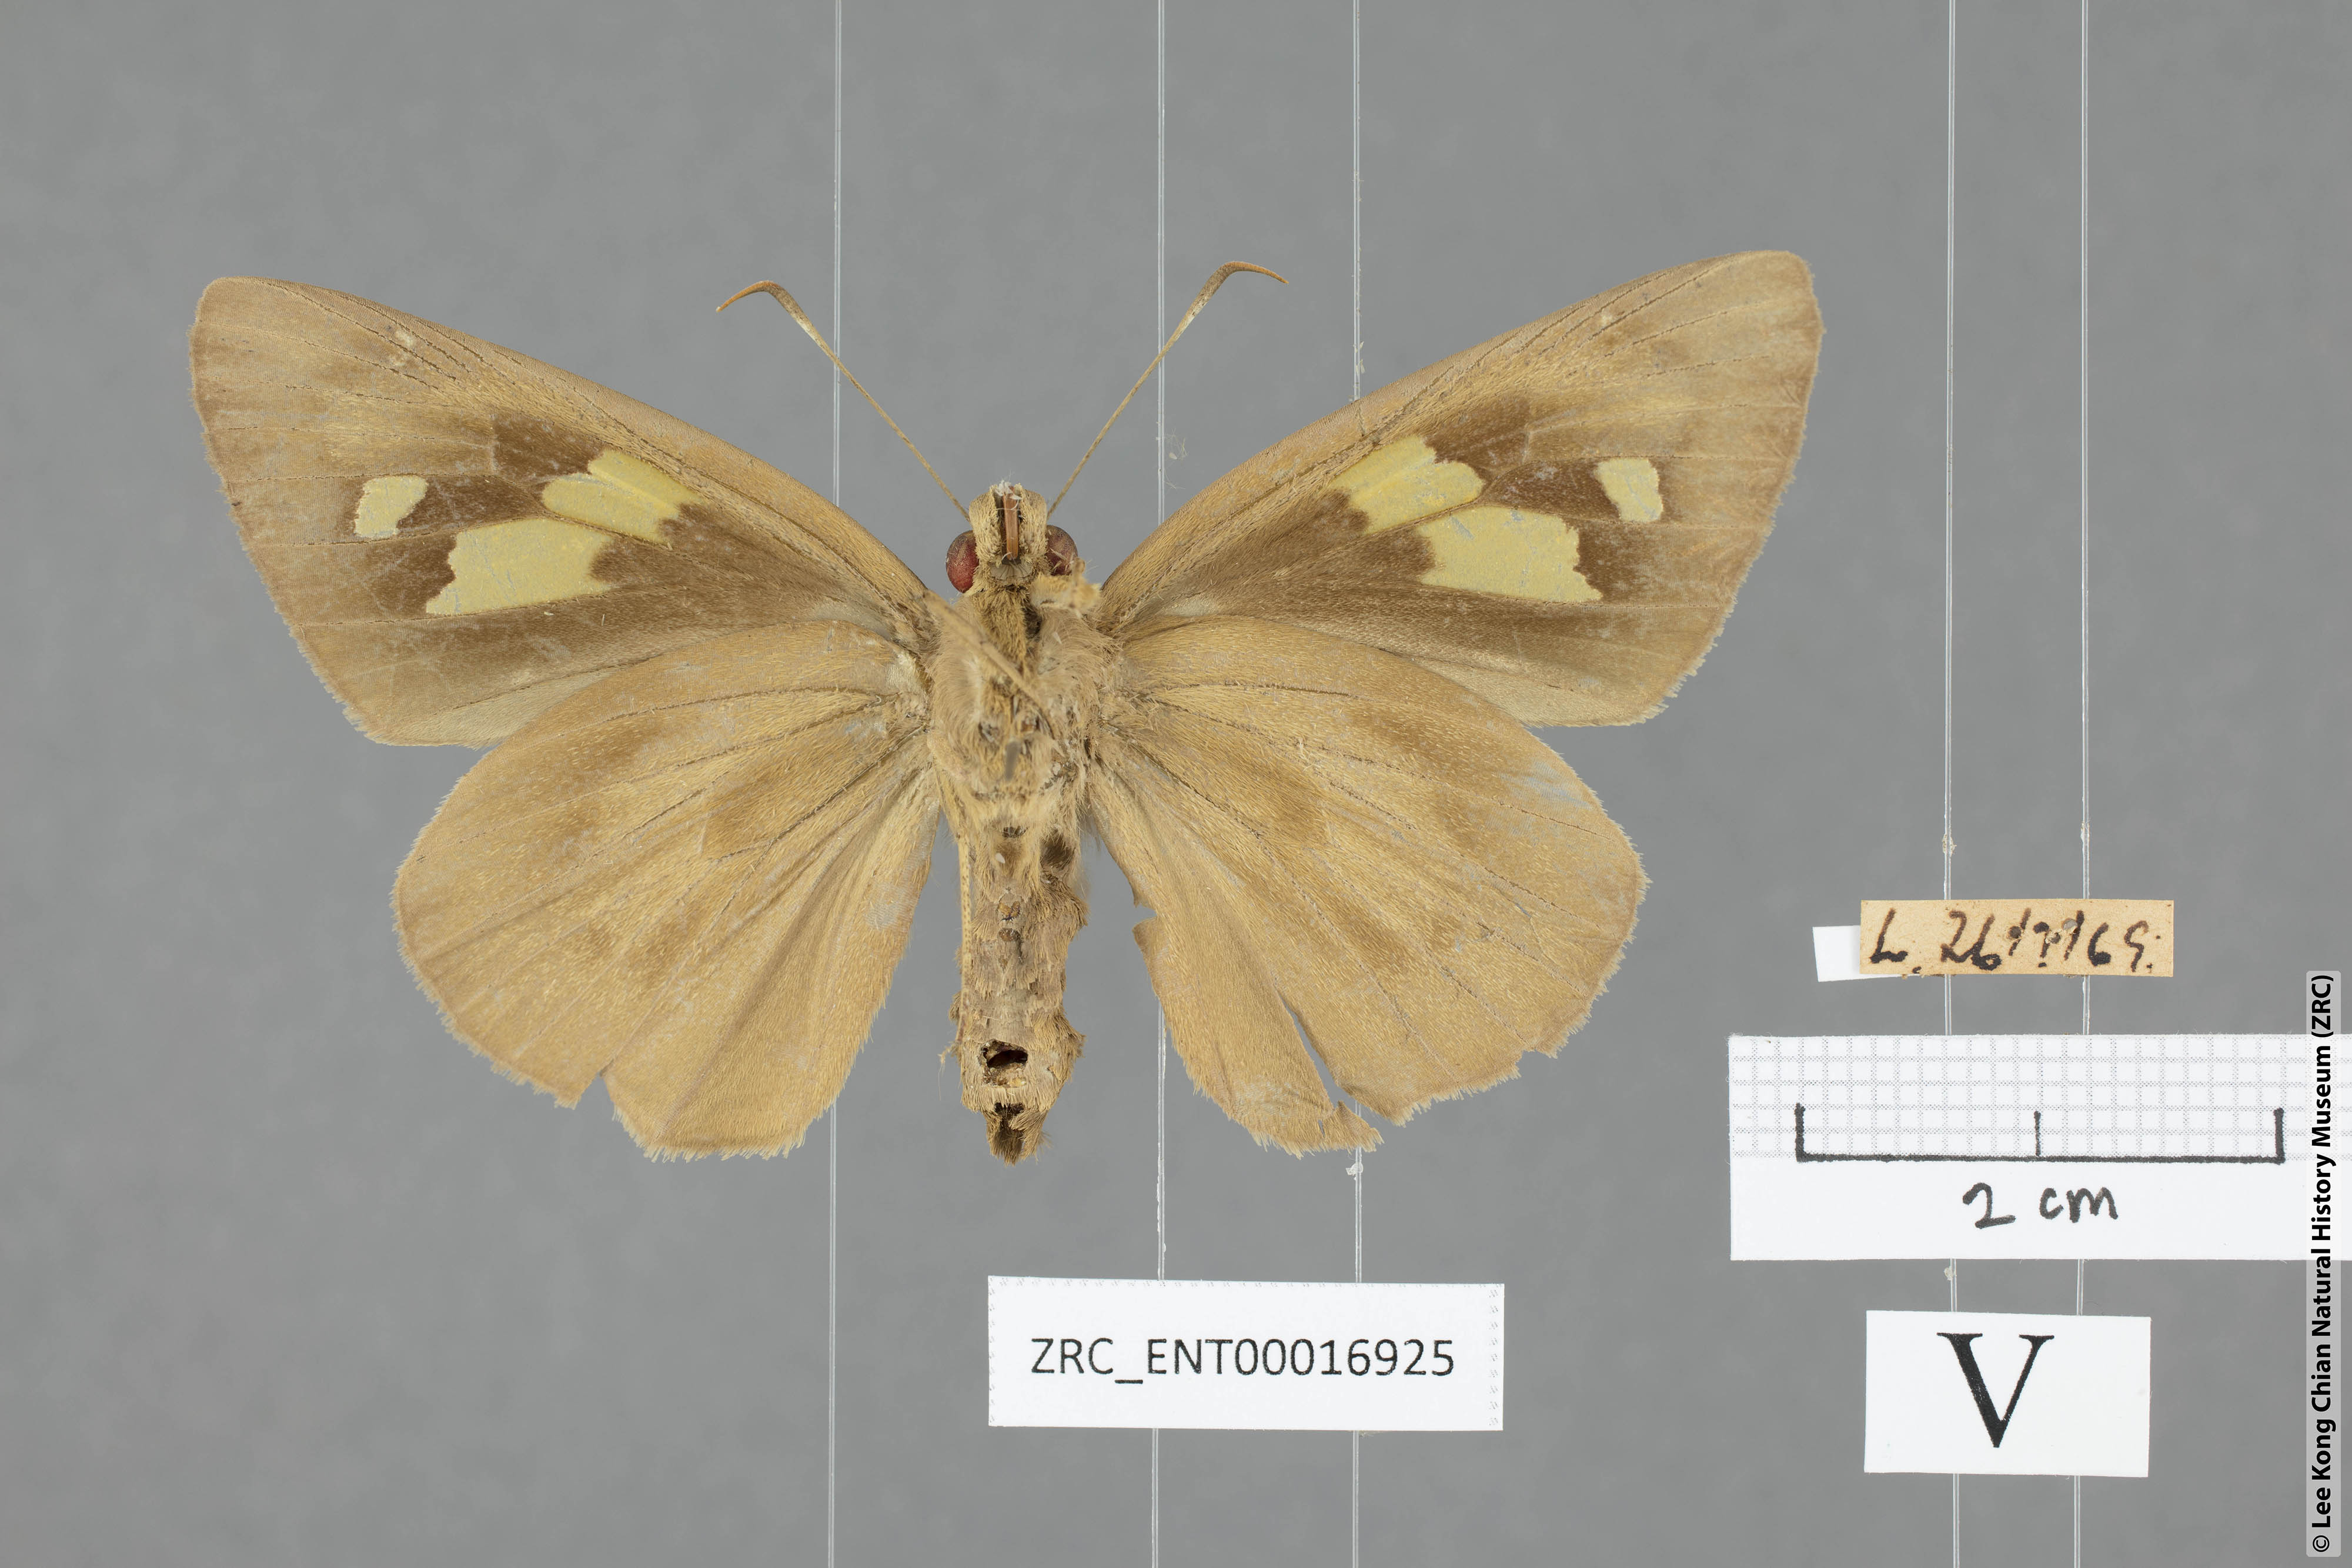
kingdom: Animalia
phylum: Arthropoda
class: Insecta
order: Lepidoptera
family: Hesperiidae
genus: Erionota
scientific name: Erionota torus
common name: Rounded palm-redeye
